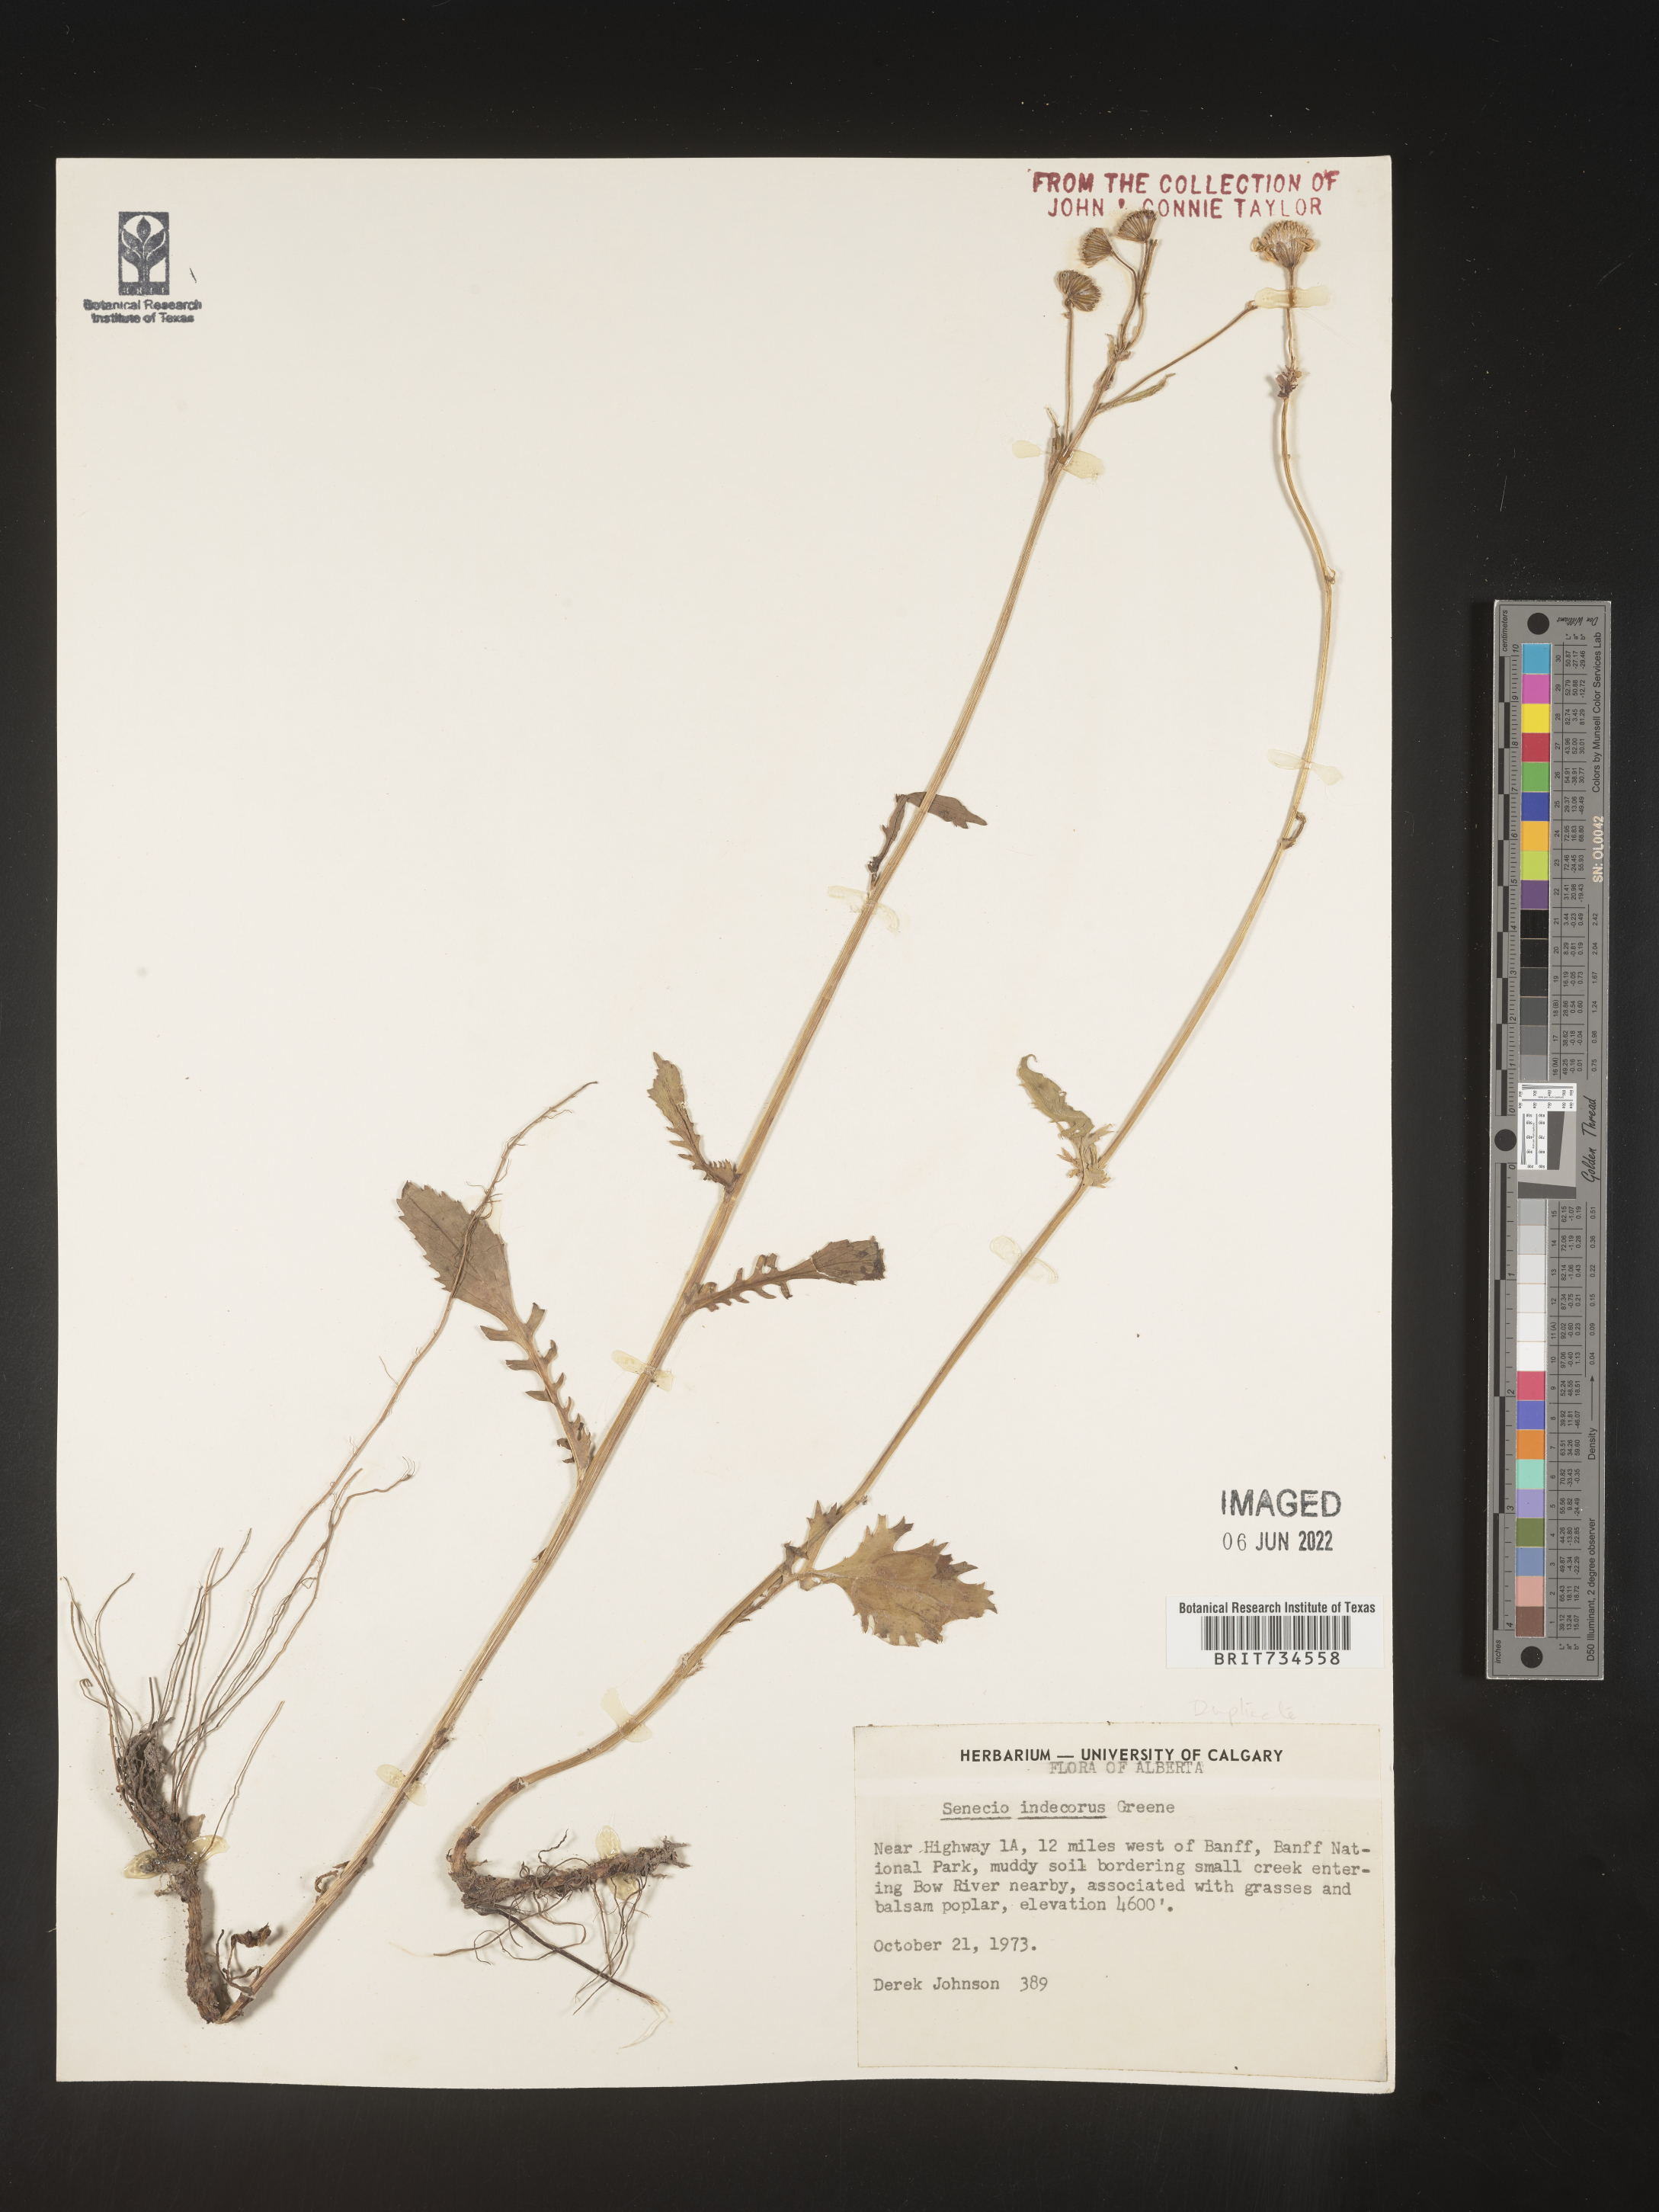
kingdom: Plantae
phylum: Tracheophyta
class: Magnoliopsida
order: Asterales
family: Asteraceae
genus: Packera
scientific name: Packera
